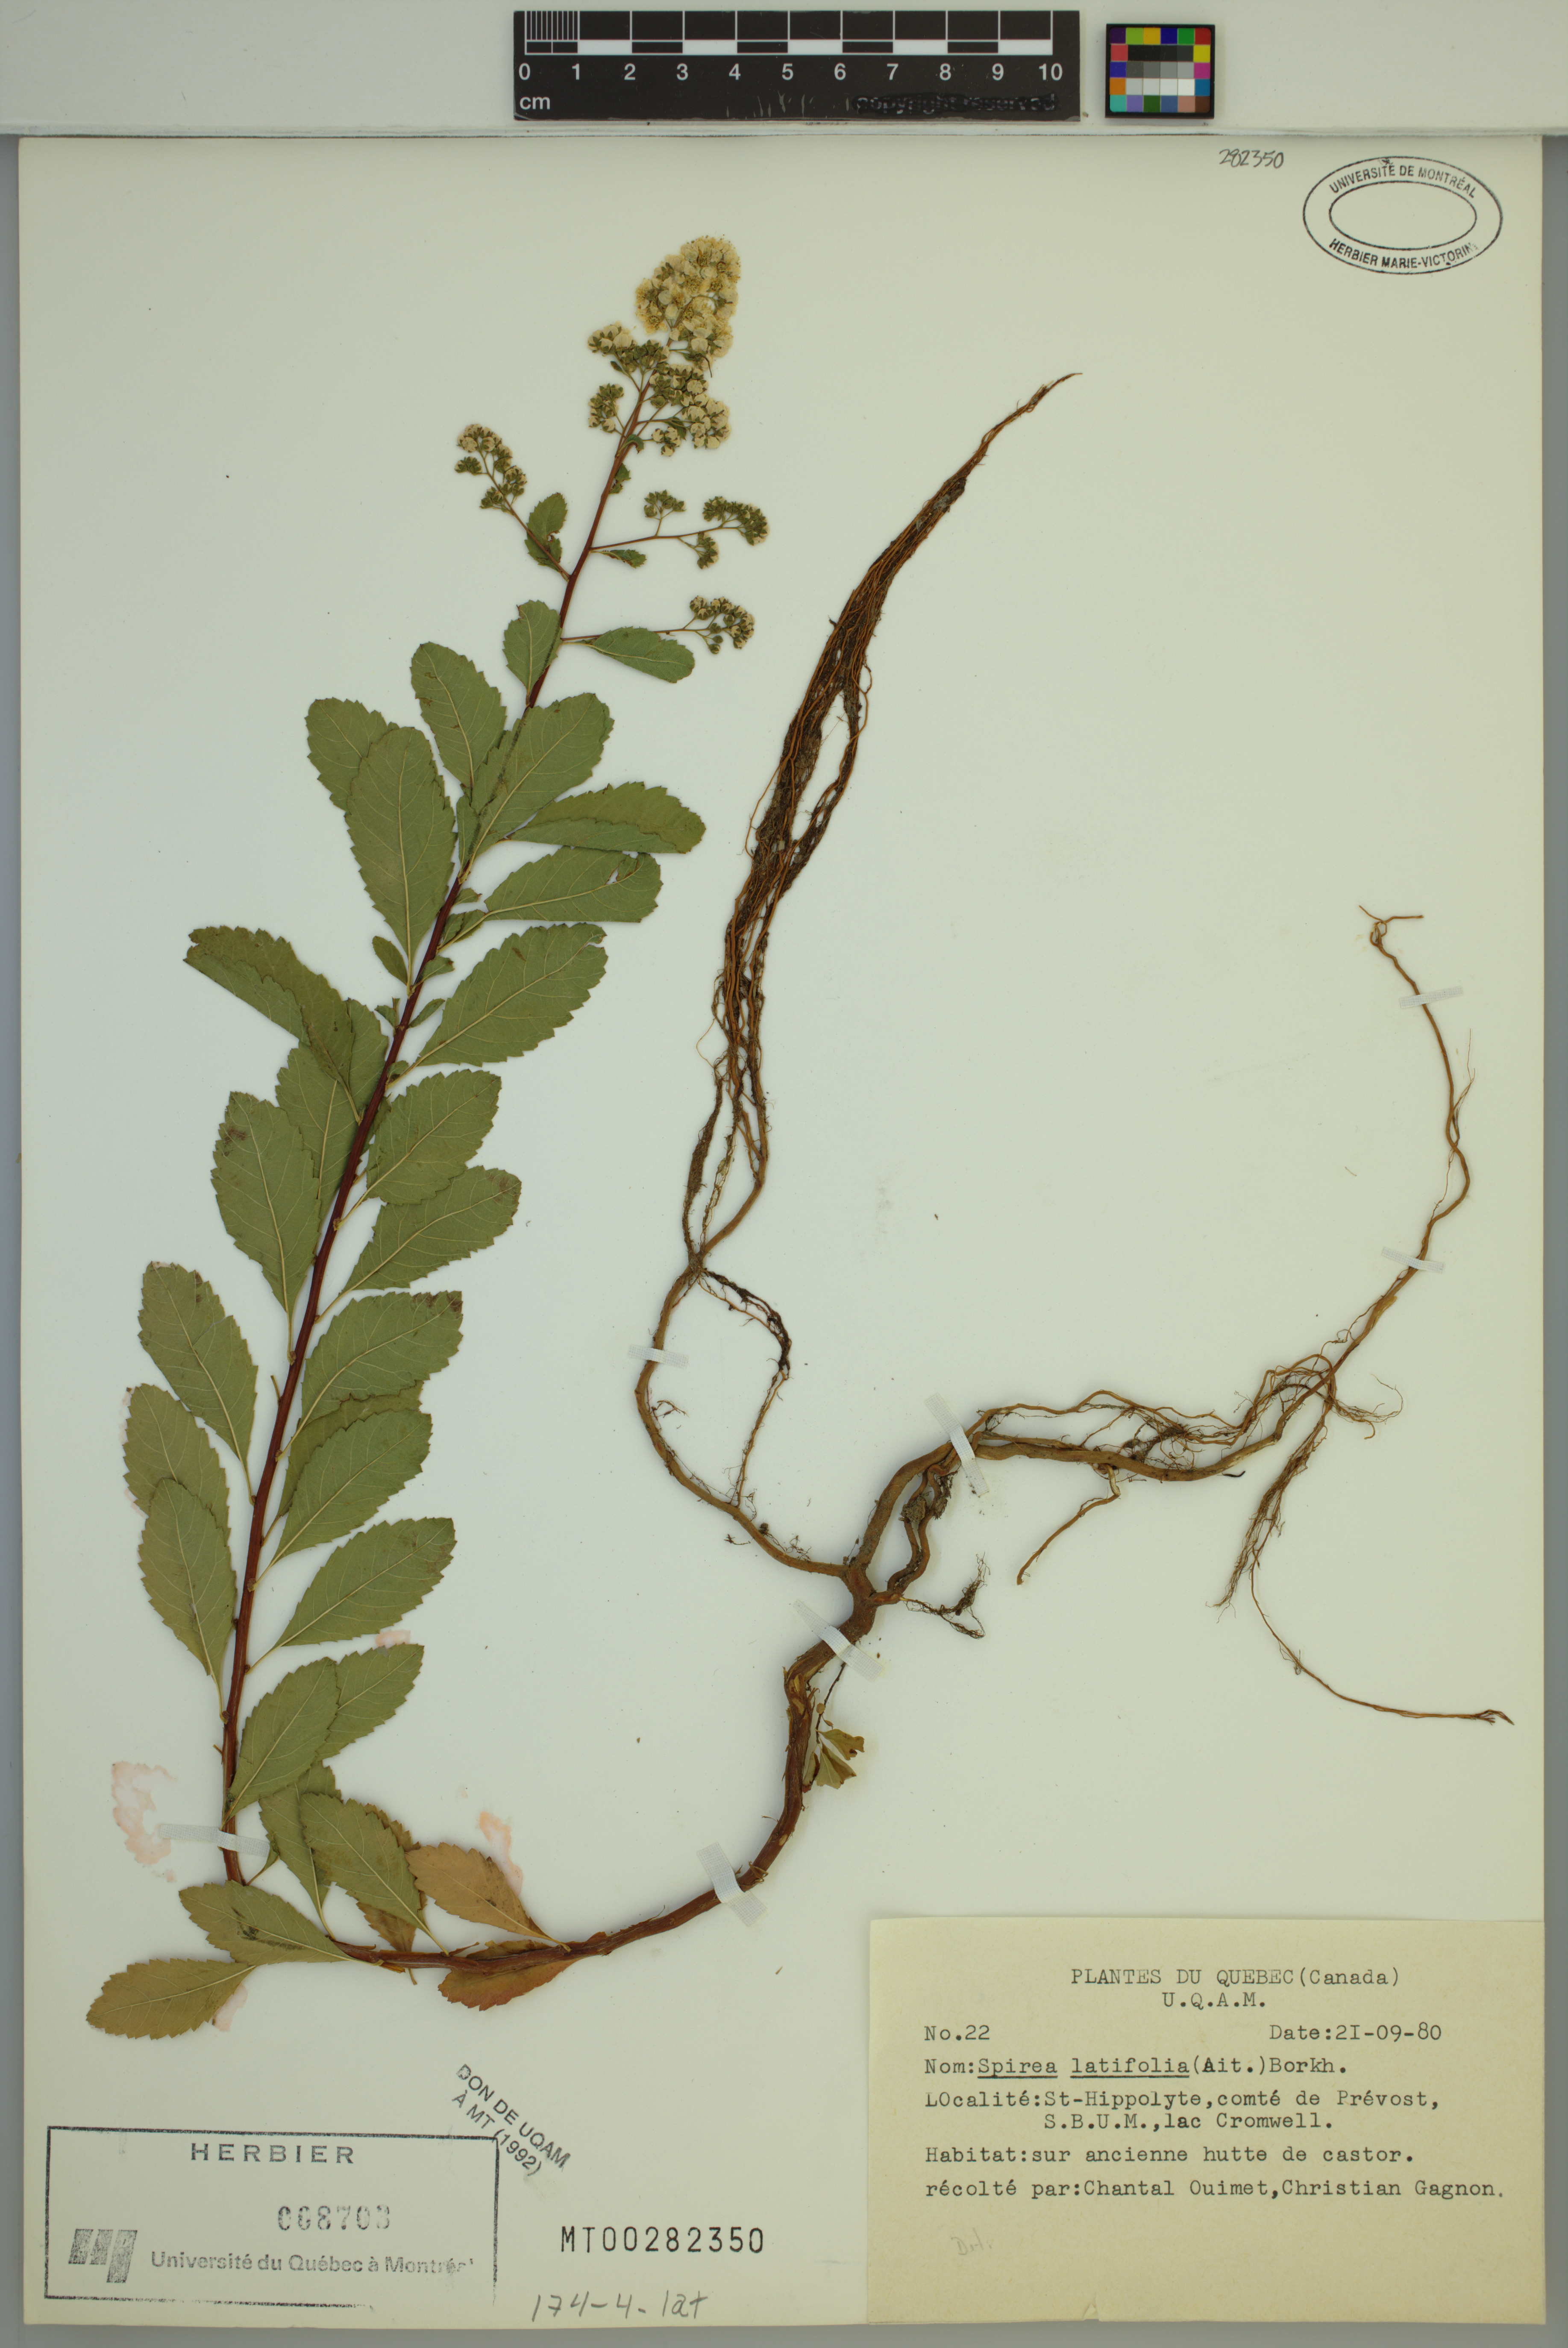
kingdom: Plantae
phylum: Tracheophyta
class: Magnoliopsida
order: Rosales
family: Rosaceae
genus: Spiraea
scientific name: Spiraea alba
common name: Pale bridewort
